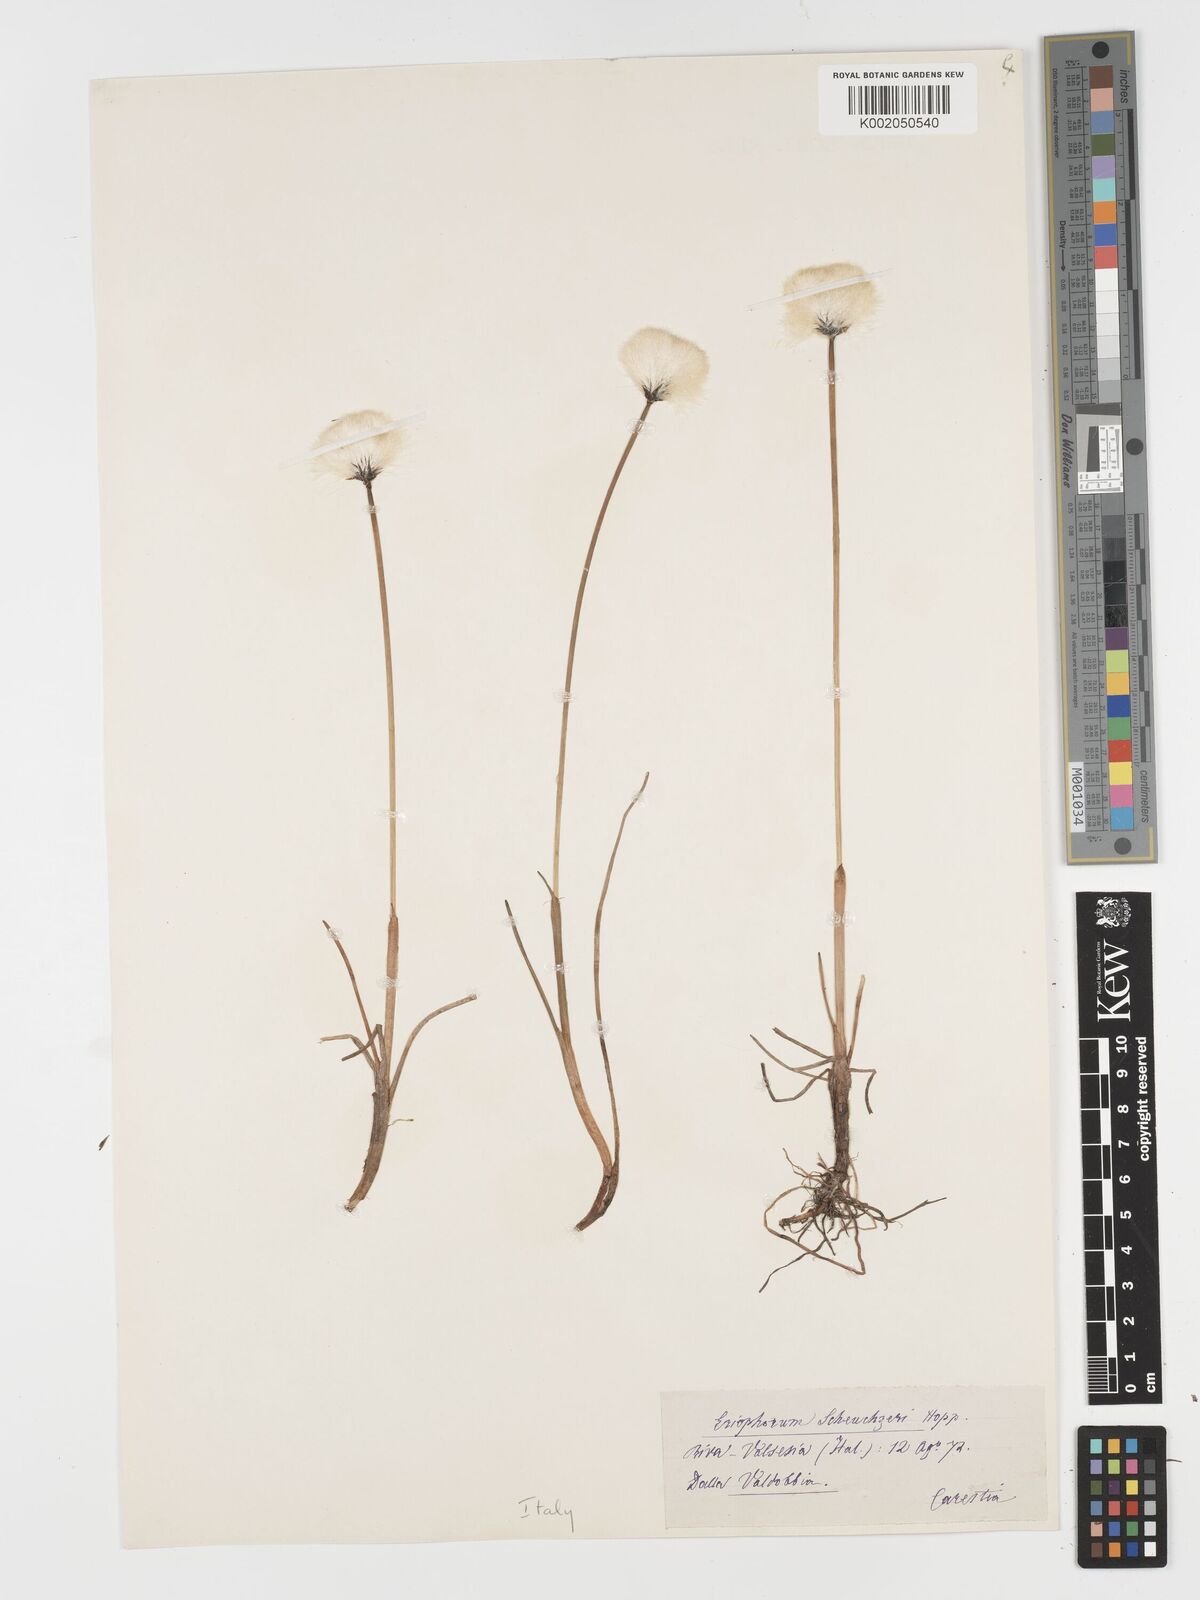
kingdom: Plantae
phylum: Tracheophyta
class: Liliopsida
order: Poales
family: Cyperaceae
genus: Eriophorum
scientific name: Eriophorum scheuchzeri
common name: Scheuchzer's cottongrass
